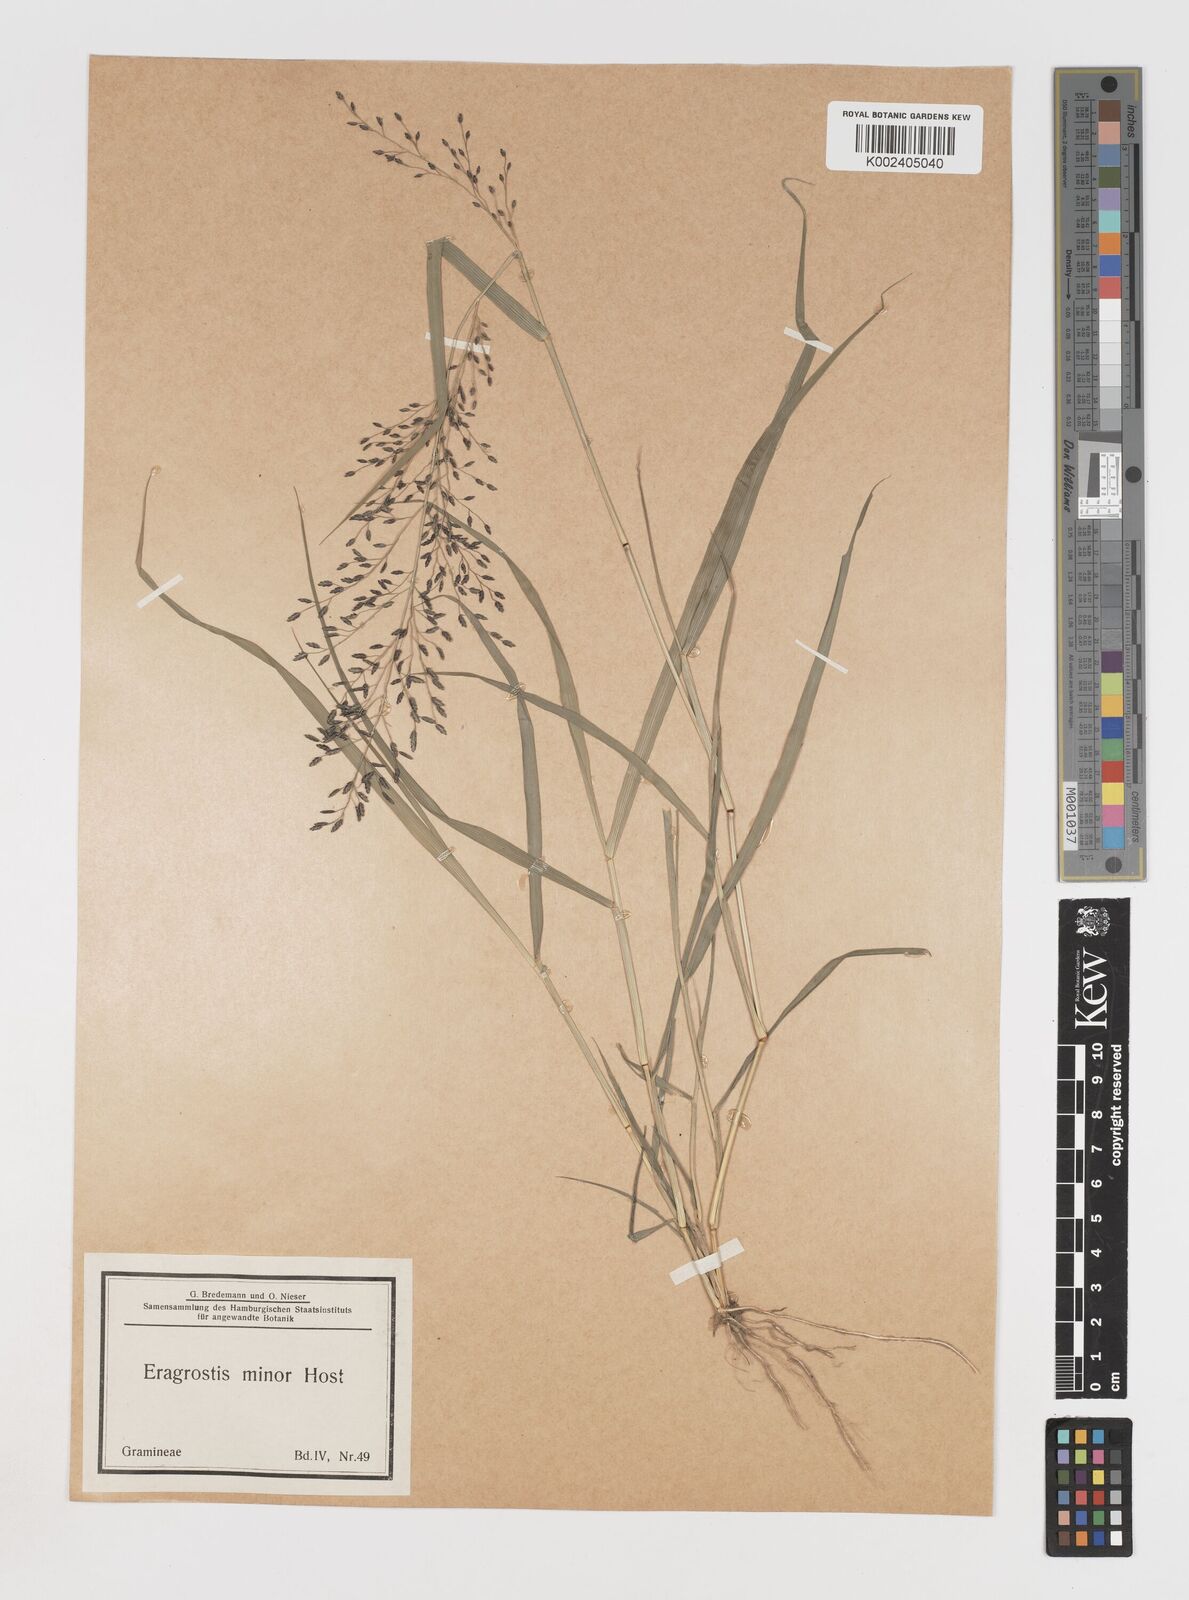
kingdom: Plantae
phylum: Tracheophyta
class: Liliopsida
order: Poales
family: Poaceae
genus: Eragrostis
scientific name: Eragrostis cilianensis
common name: Stinkgrass
